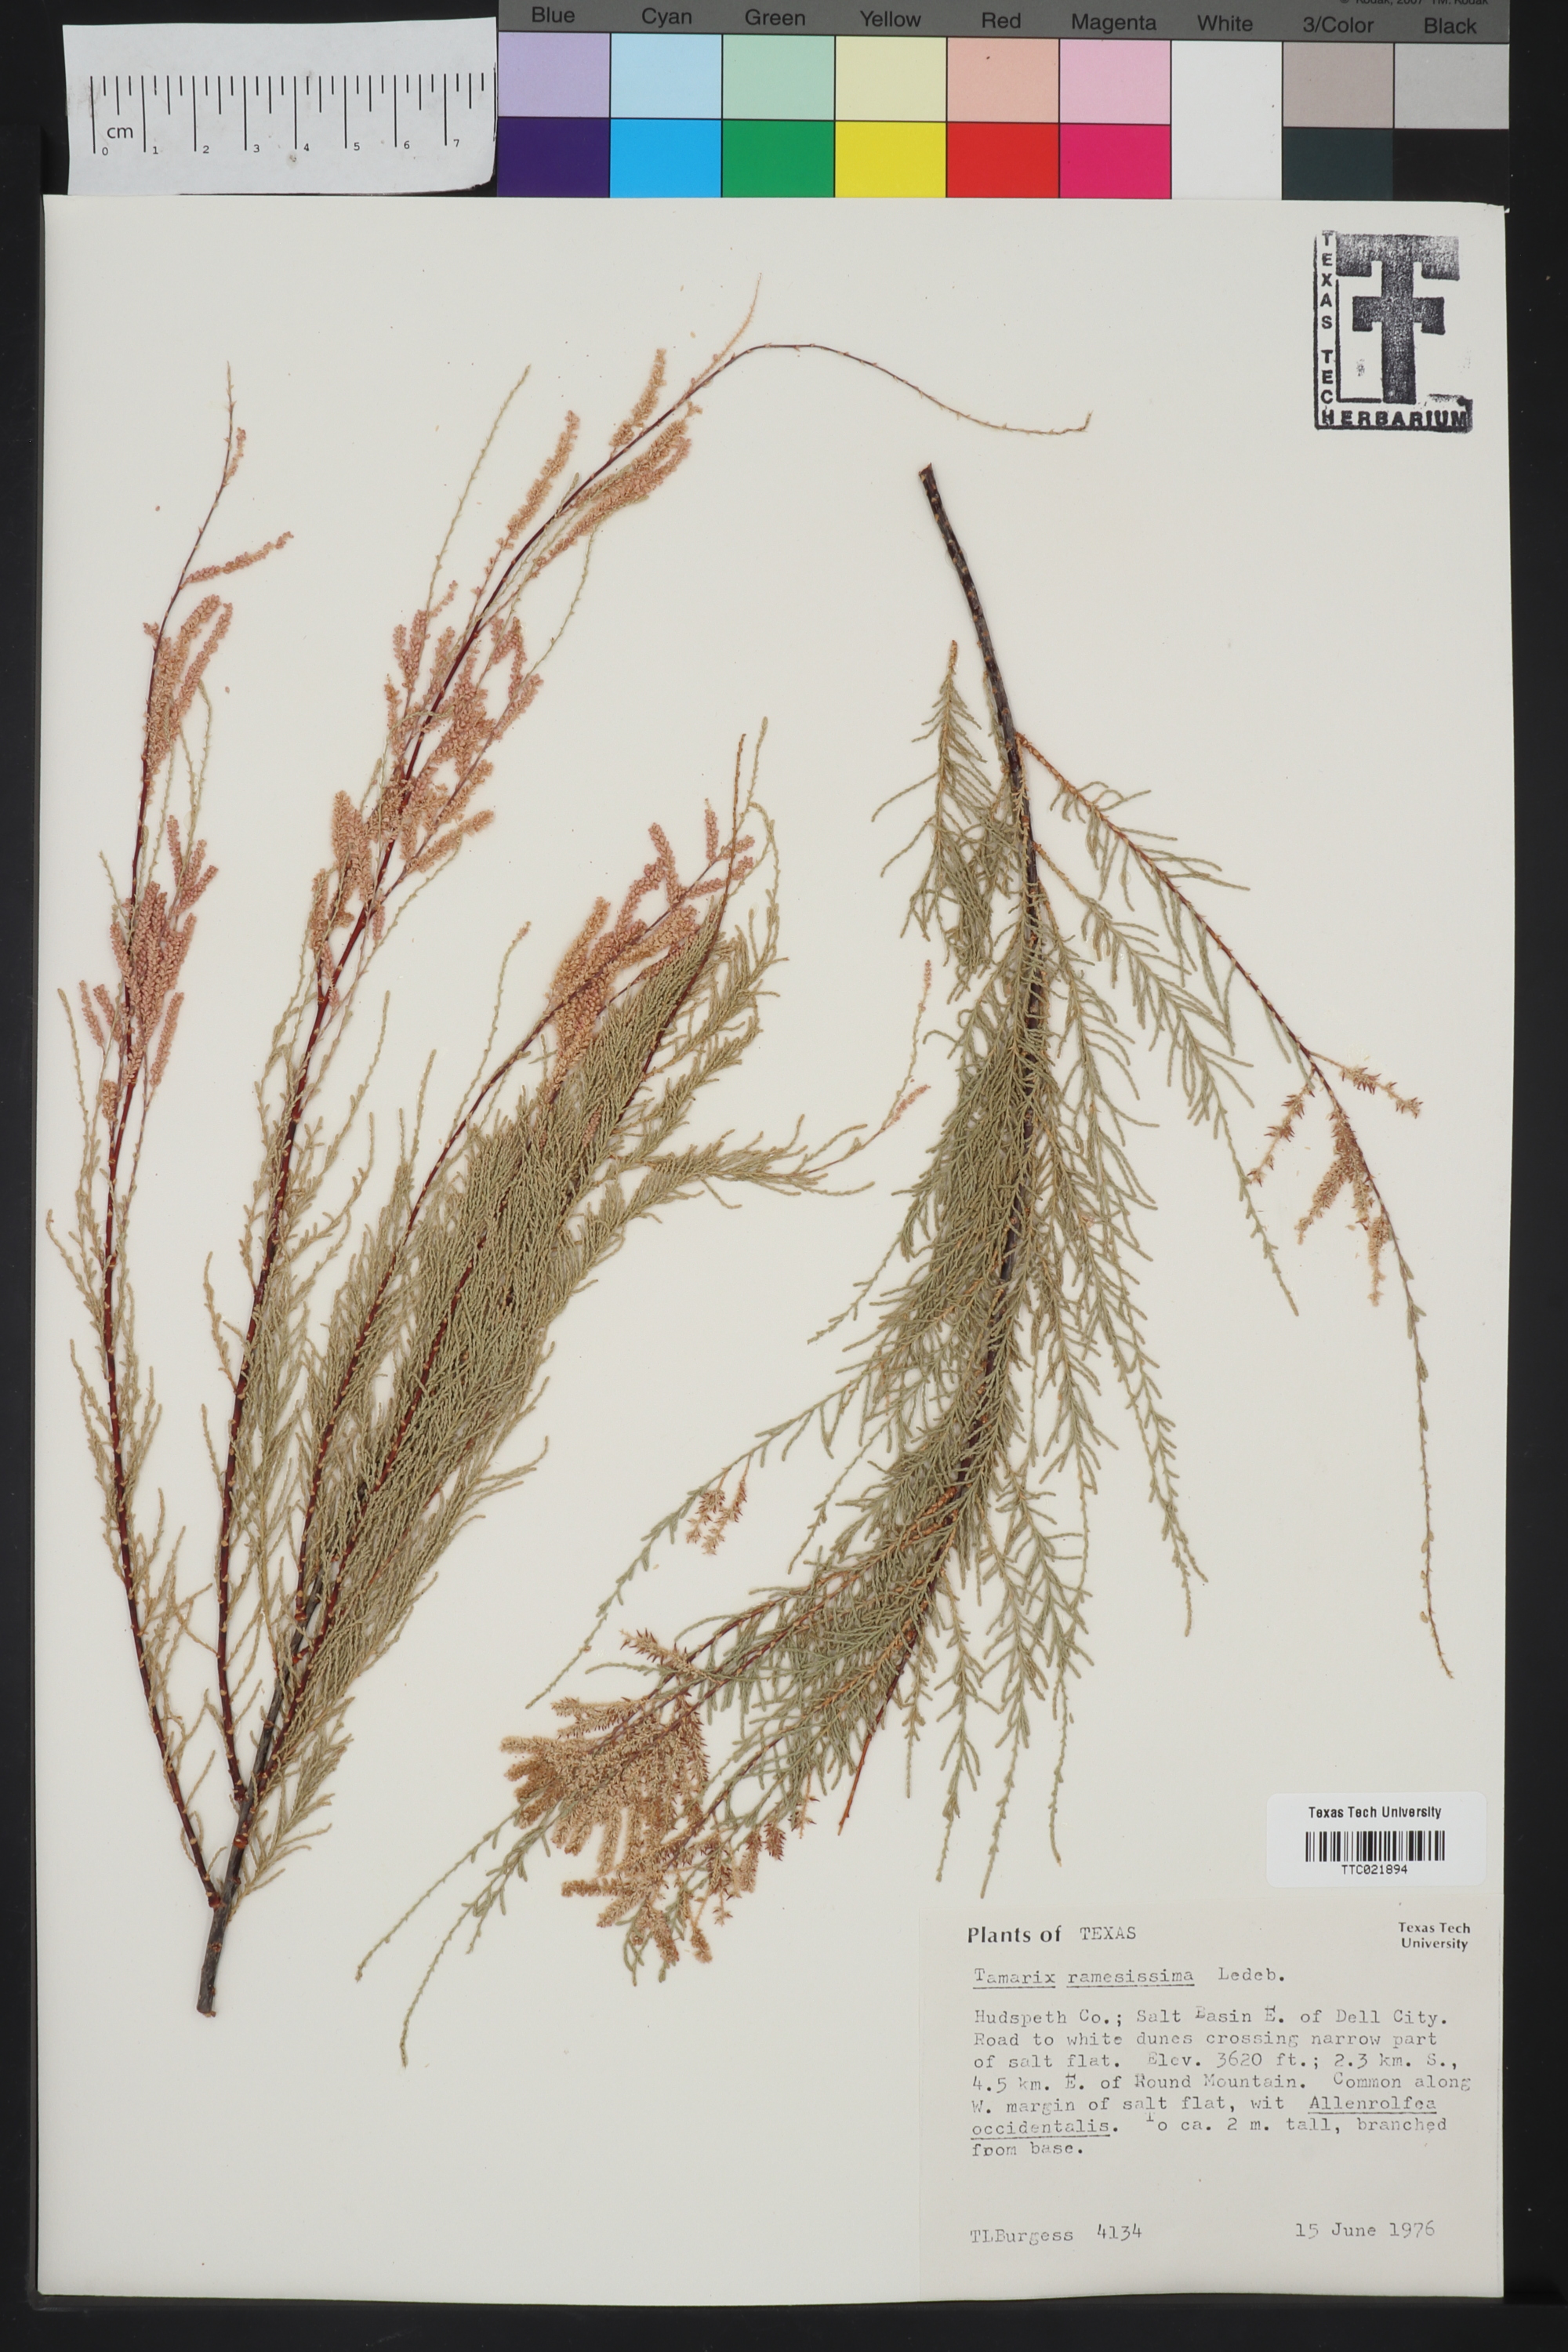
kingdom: Plantae
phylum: Tracheophyta
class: Magnoliopsida
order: Caryophyllales
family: Tamaricaceae
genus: Tamarix
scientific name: Tamarix ramosissima
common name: Pink tamarisk
